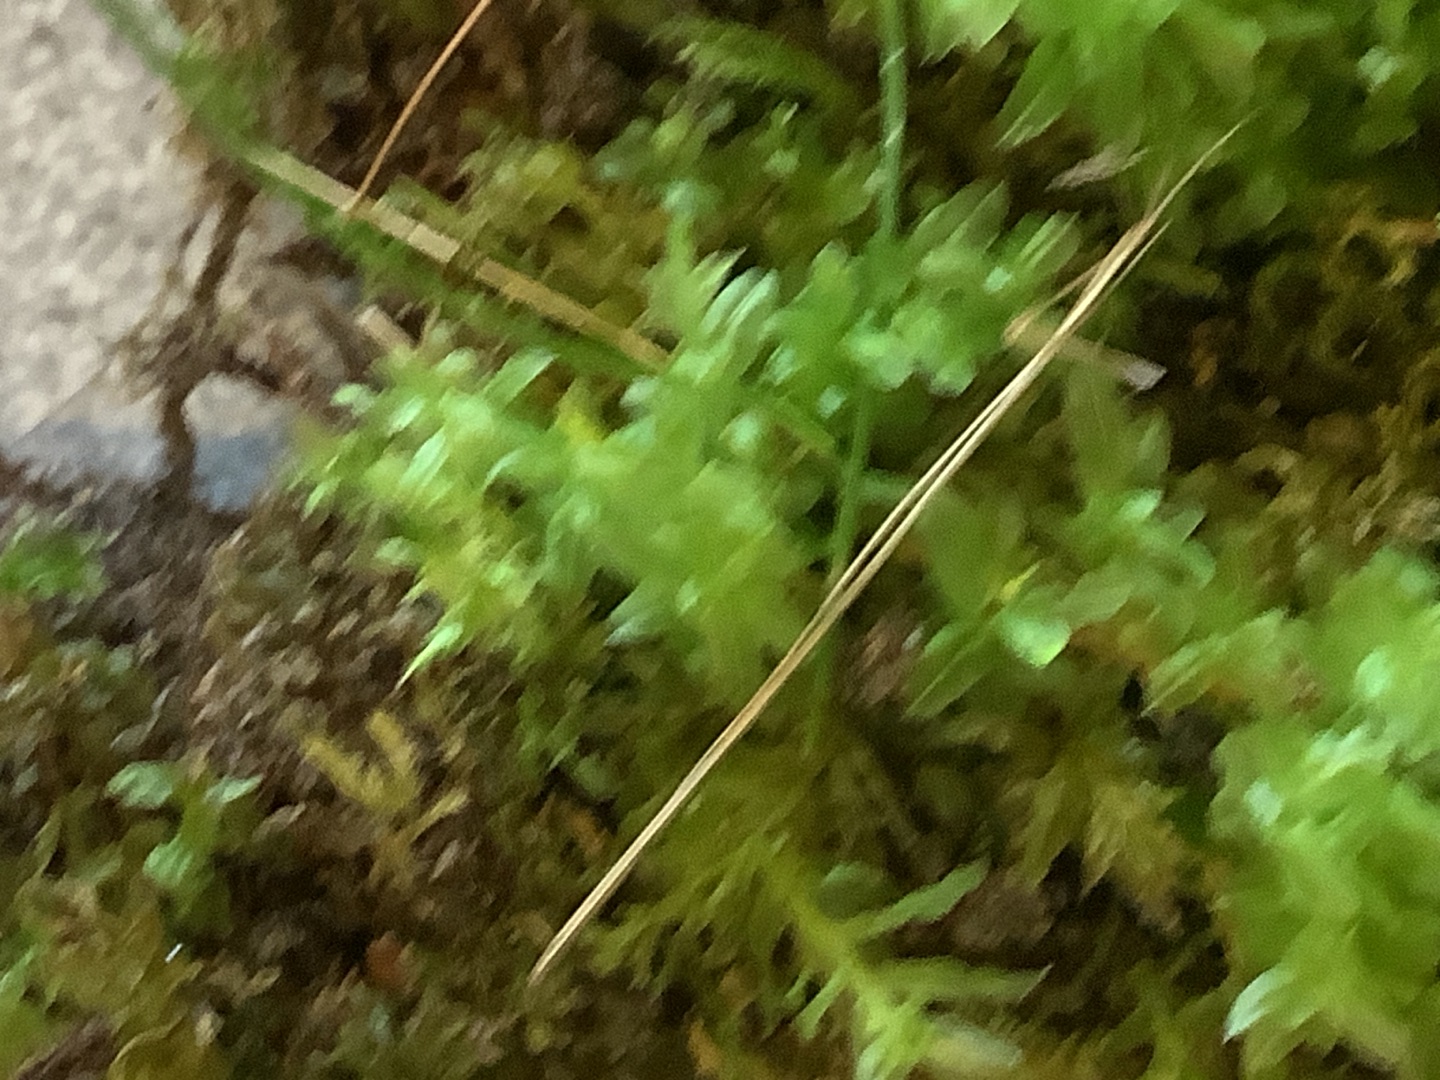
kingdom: Plantae
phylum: Bryophyta
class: Bryopsida
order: Bryales
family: Mniaceae
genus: Plagiomnium
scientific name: Plagiomnium undulatum
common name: Bølget krybstjerne
